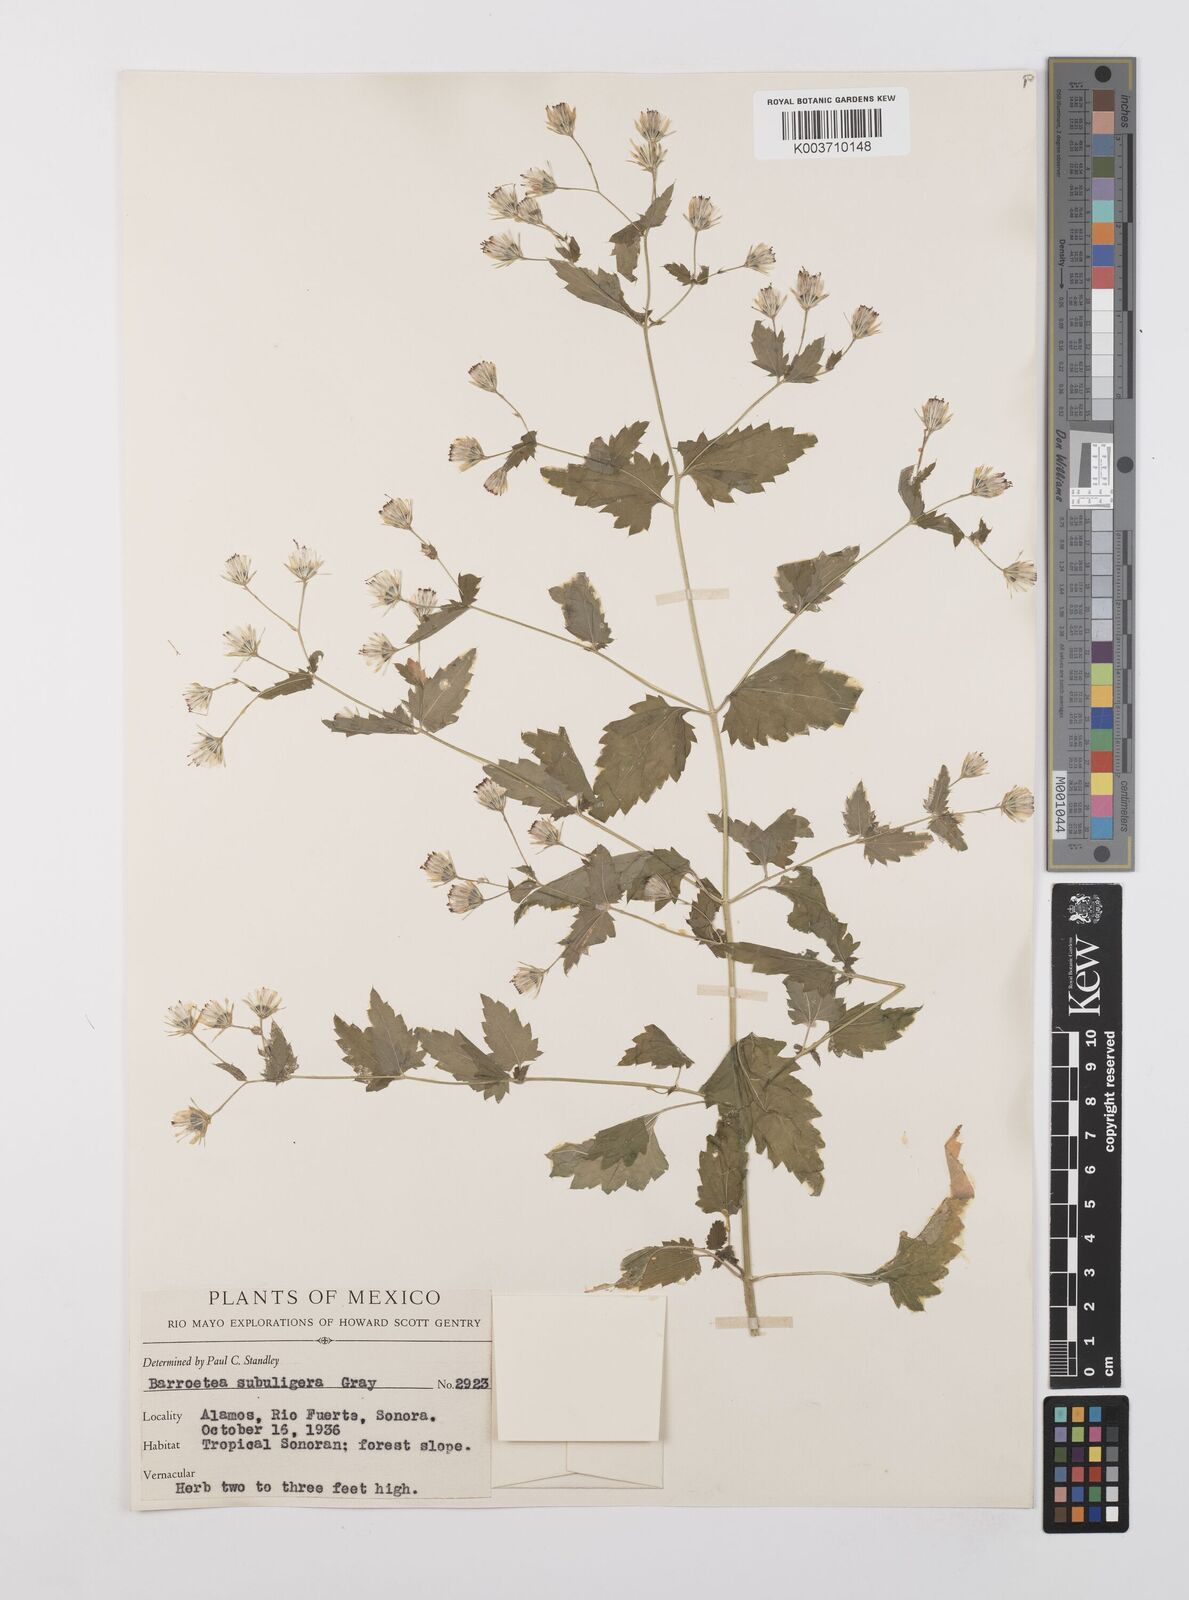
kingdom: Plantae
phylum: Tracheophyta
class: Magnoliopsida
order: Asterales
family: Asteraceae
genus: Brickellia
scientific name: Brickellia subuligera
